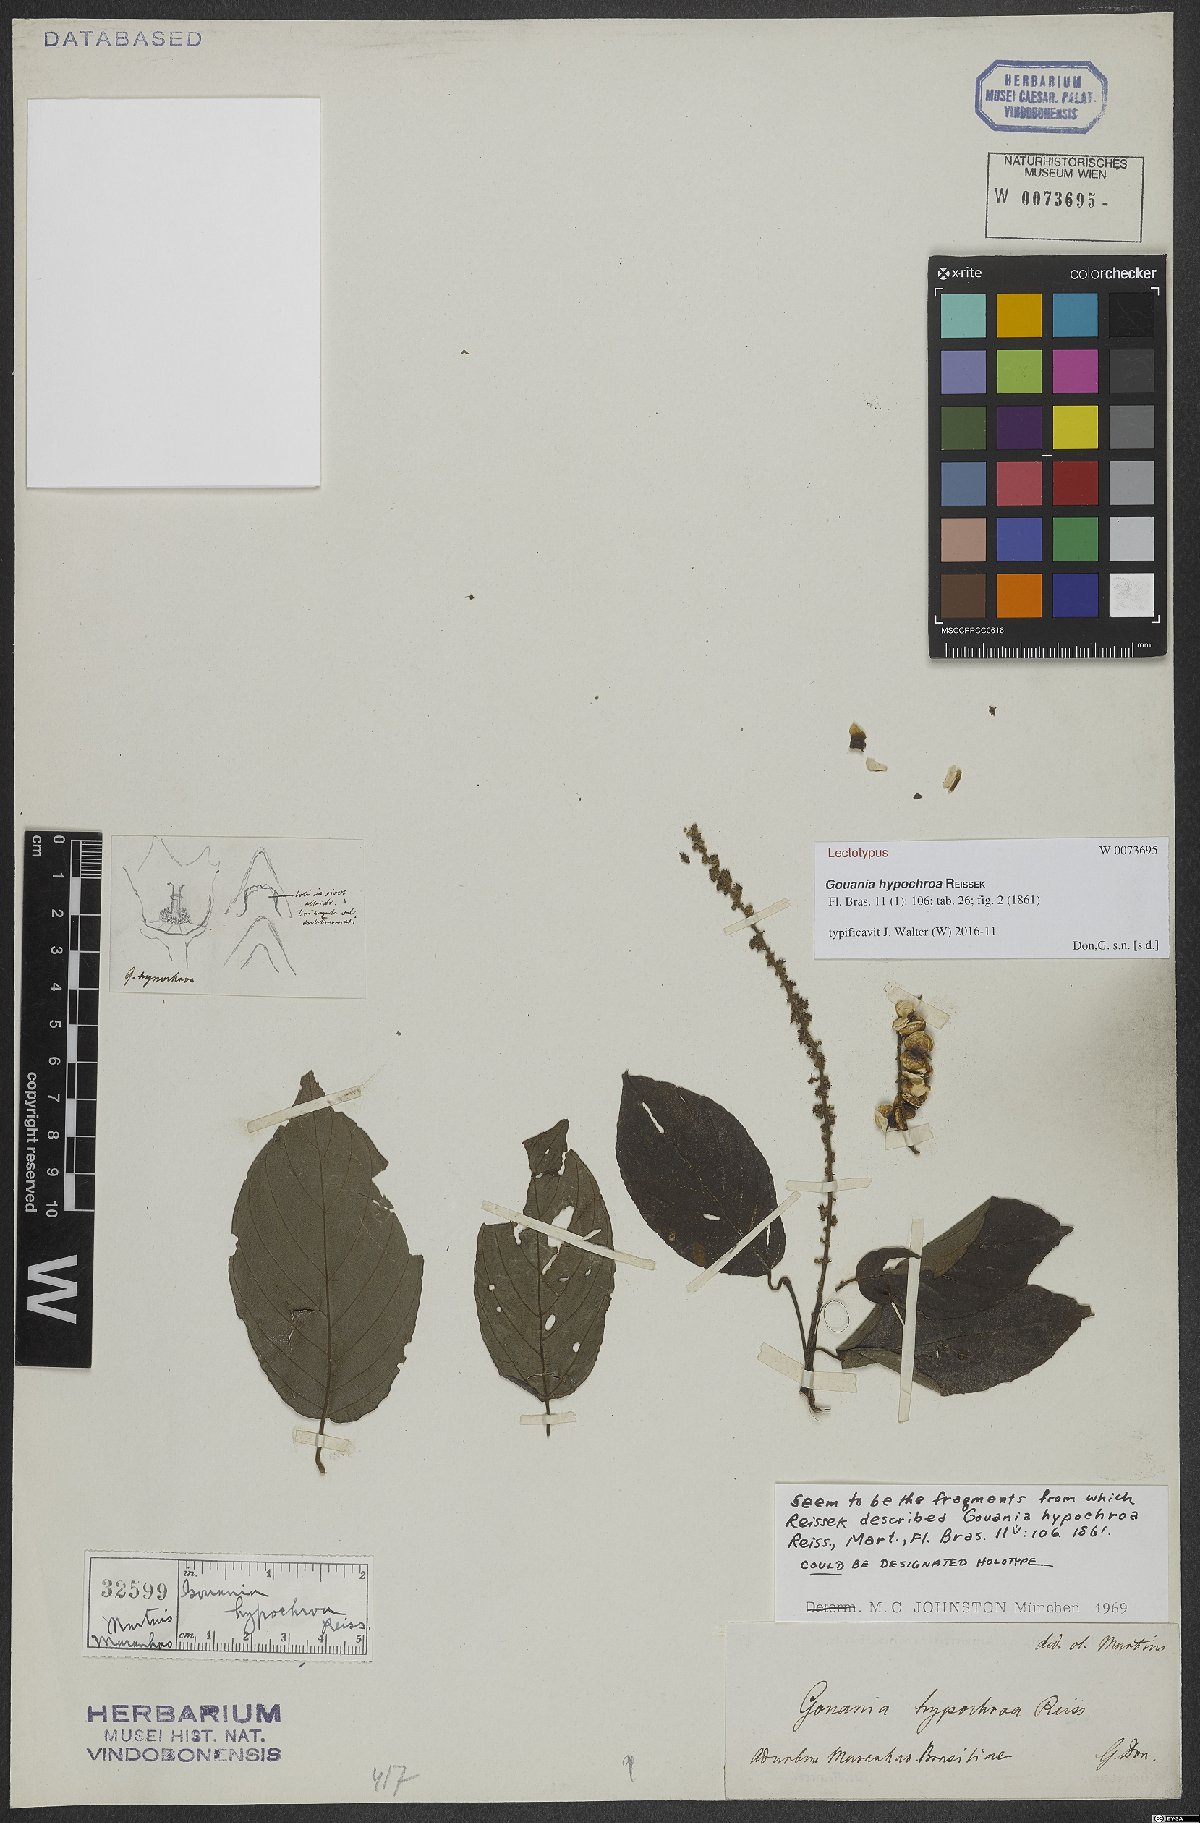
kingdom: Plantae
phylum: Tracheophyta
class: Magnoliopsida
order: Rosales
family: Rhamnaceae
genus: Gouania
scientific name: Gouania discolor
